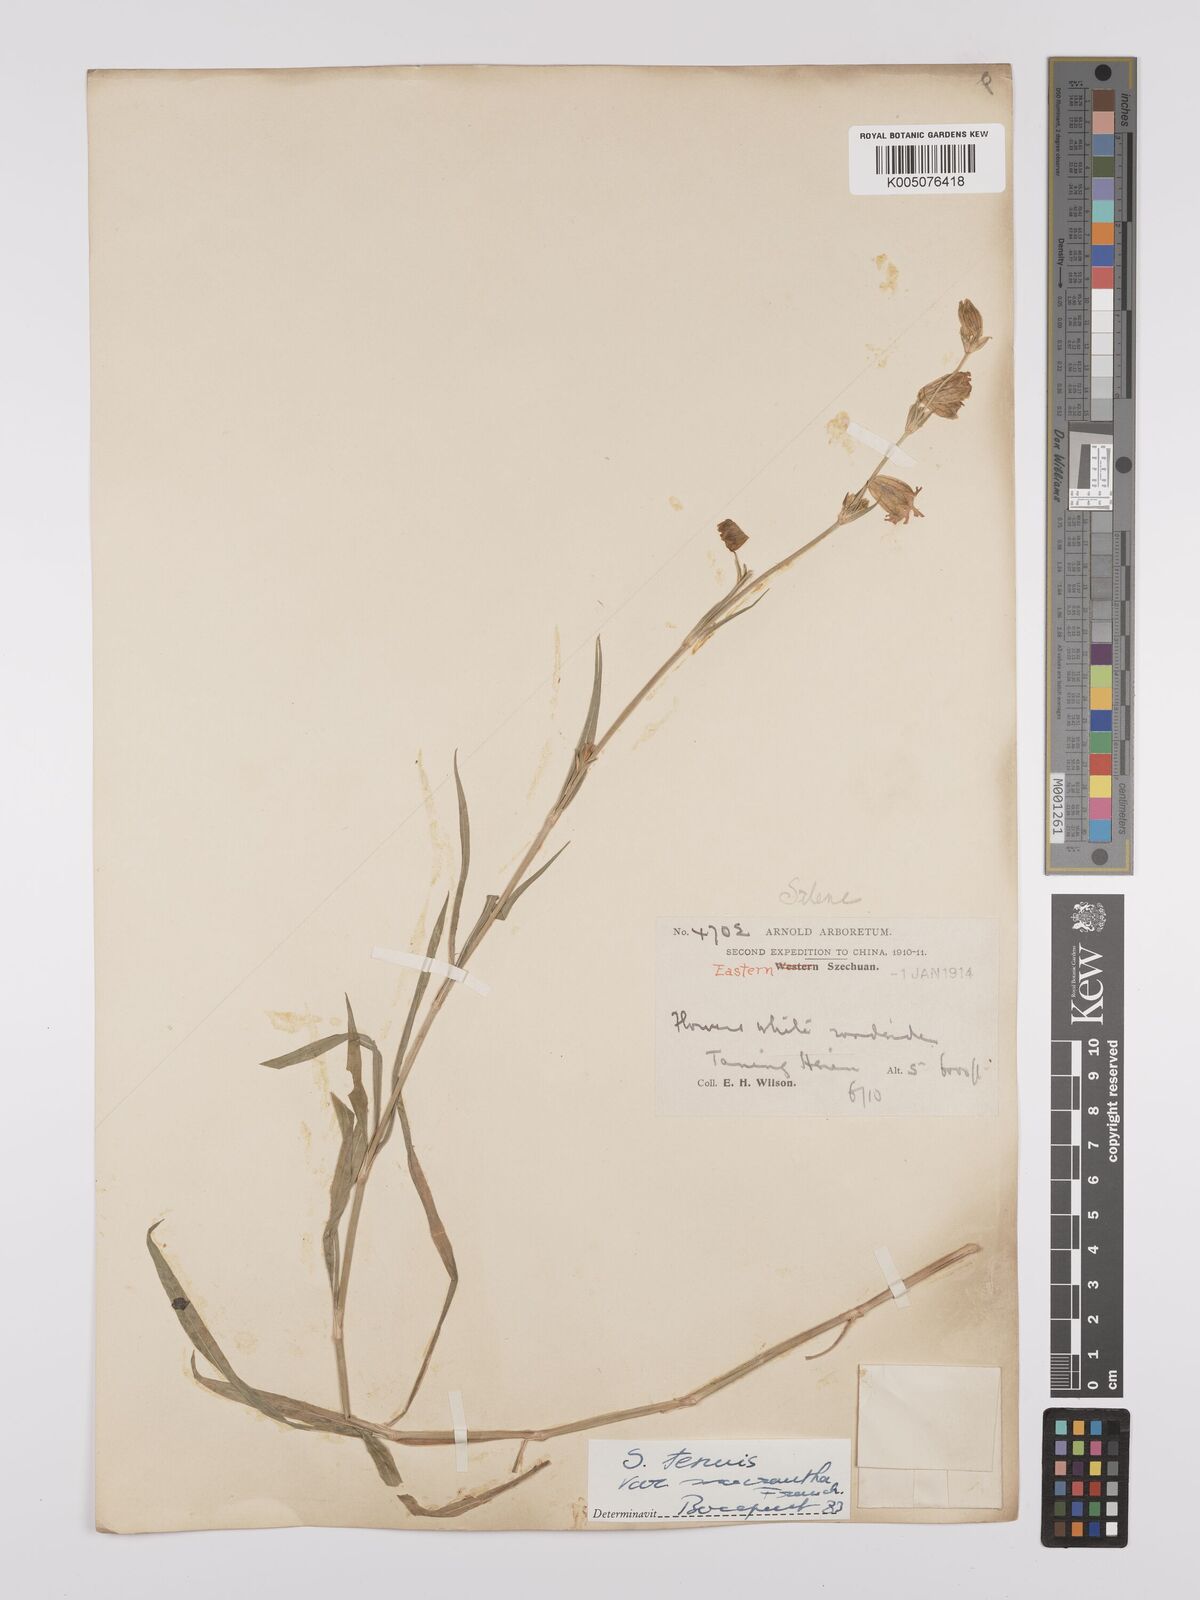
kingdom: Plantae
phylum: Tracheophyta
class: Magnoliopsida
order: Caryophyllales
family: Caryophyllaceae
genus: Silene
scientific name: Silene
